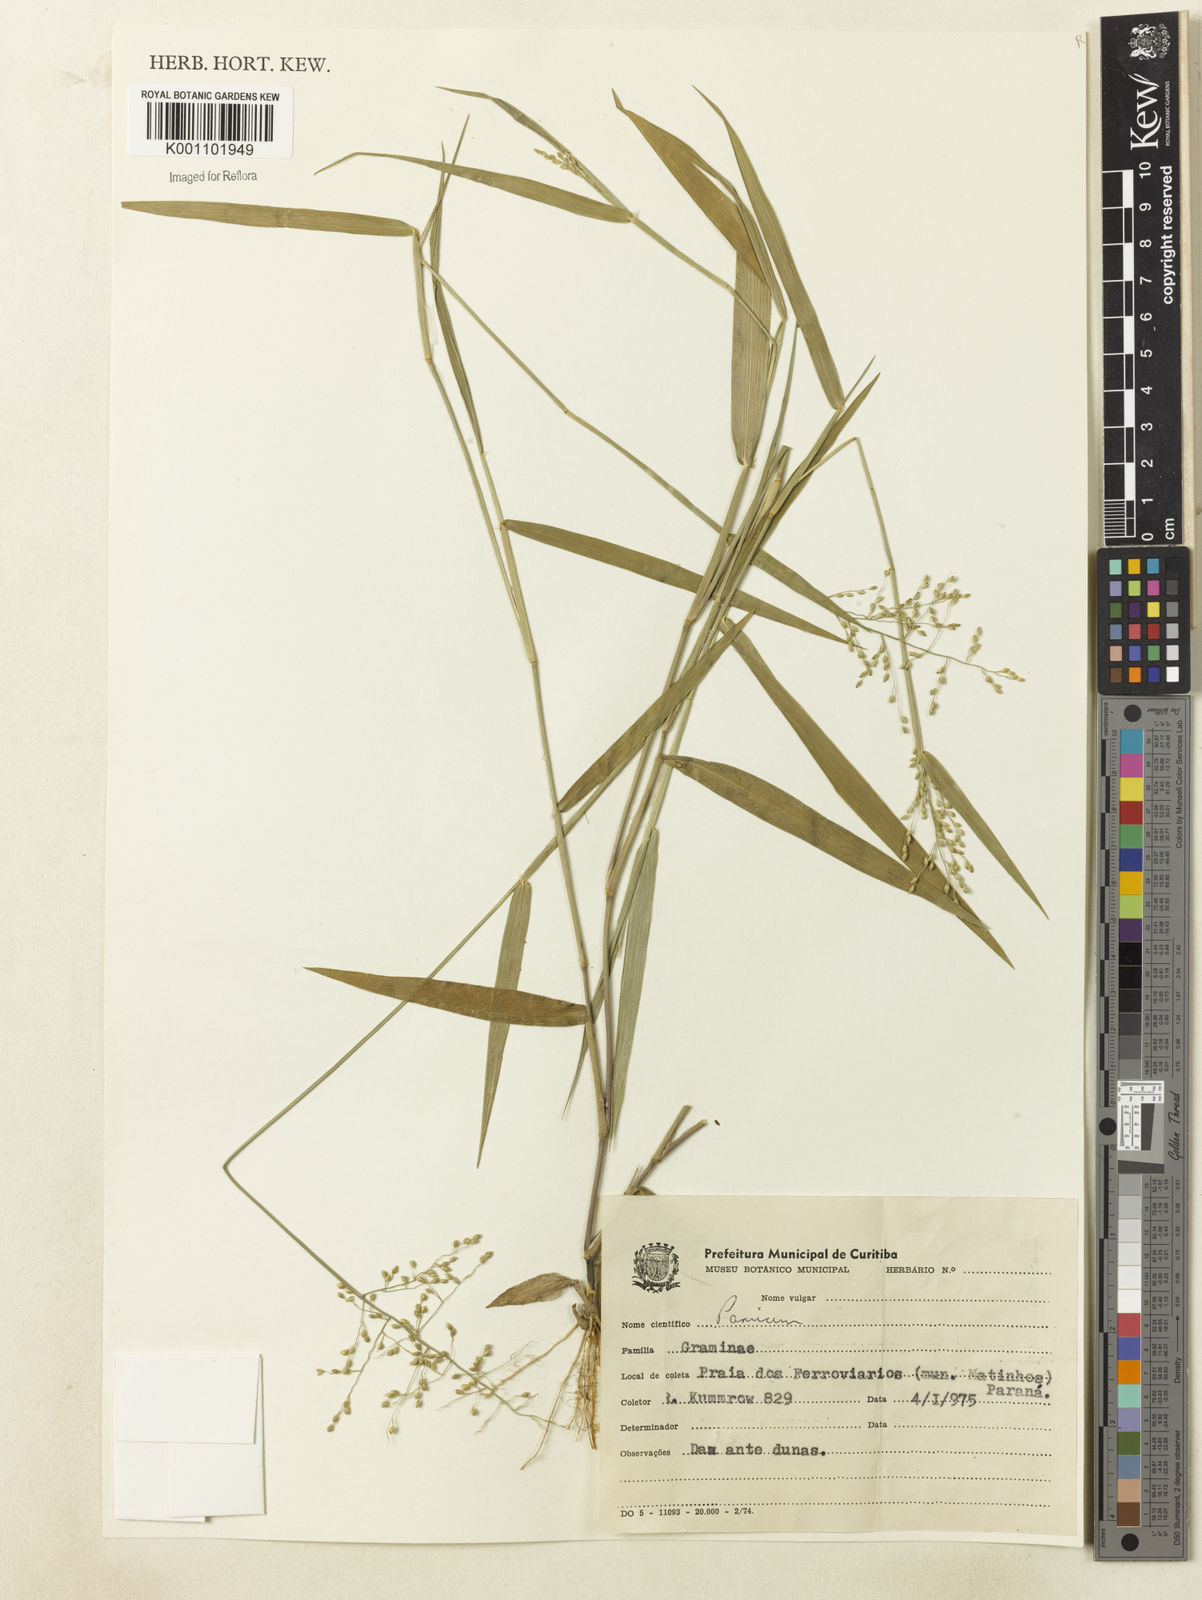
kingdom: Plantae
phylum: Tracheophyta
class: Liliopsida
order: Poales
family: Poaceae
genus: Dichanthelium
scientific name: Dichanthelium sabulorum
